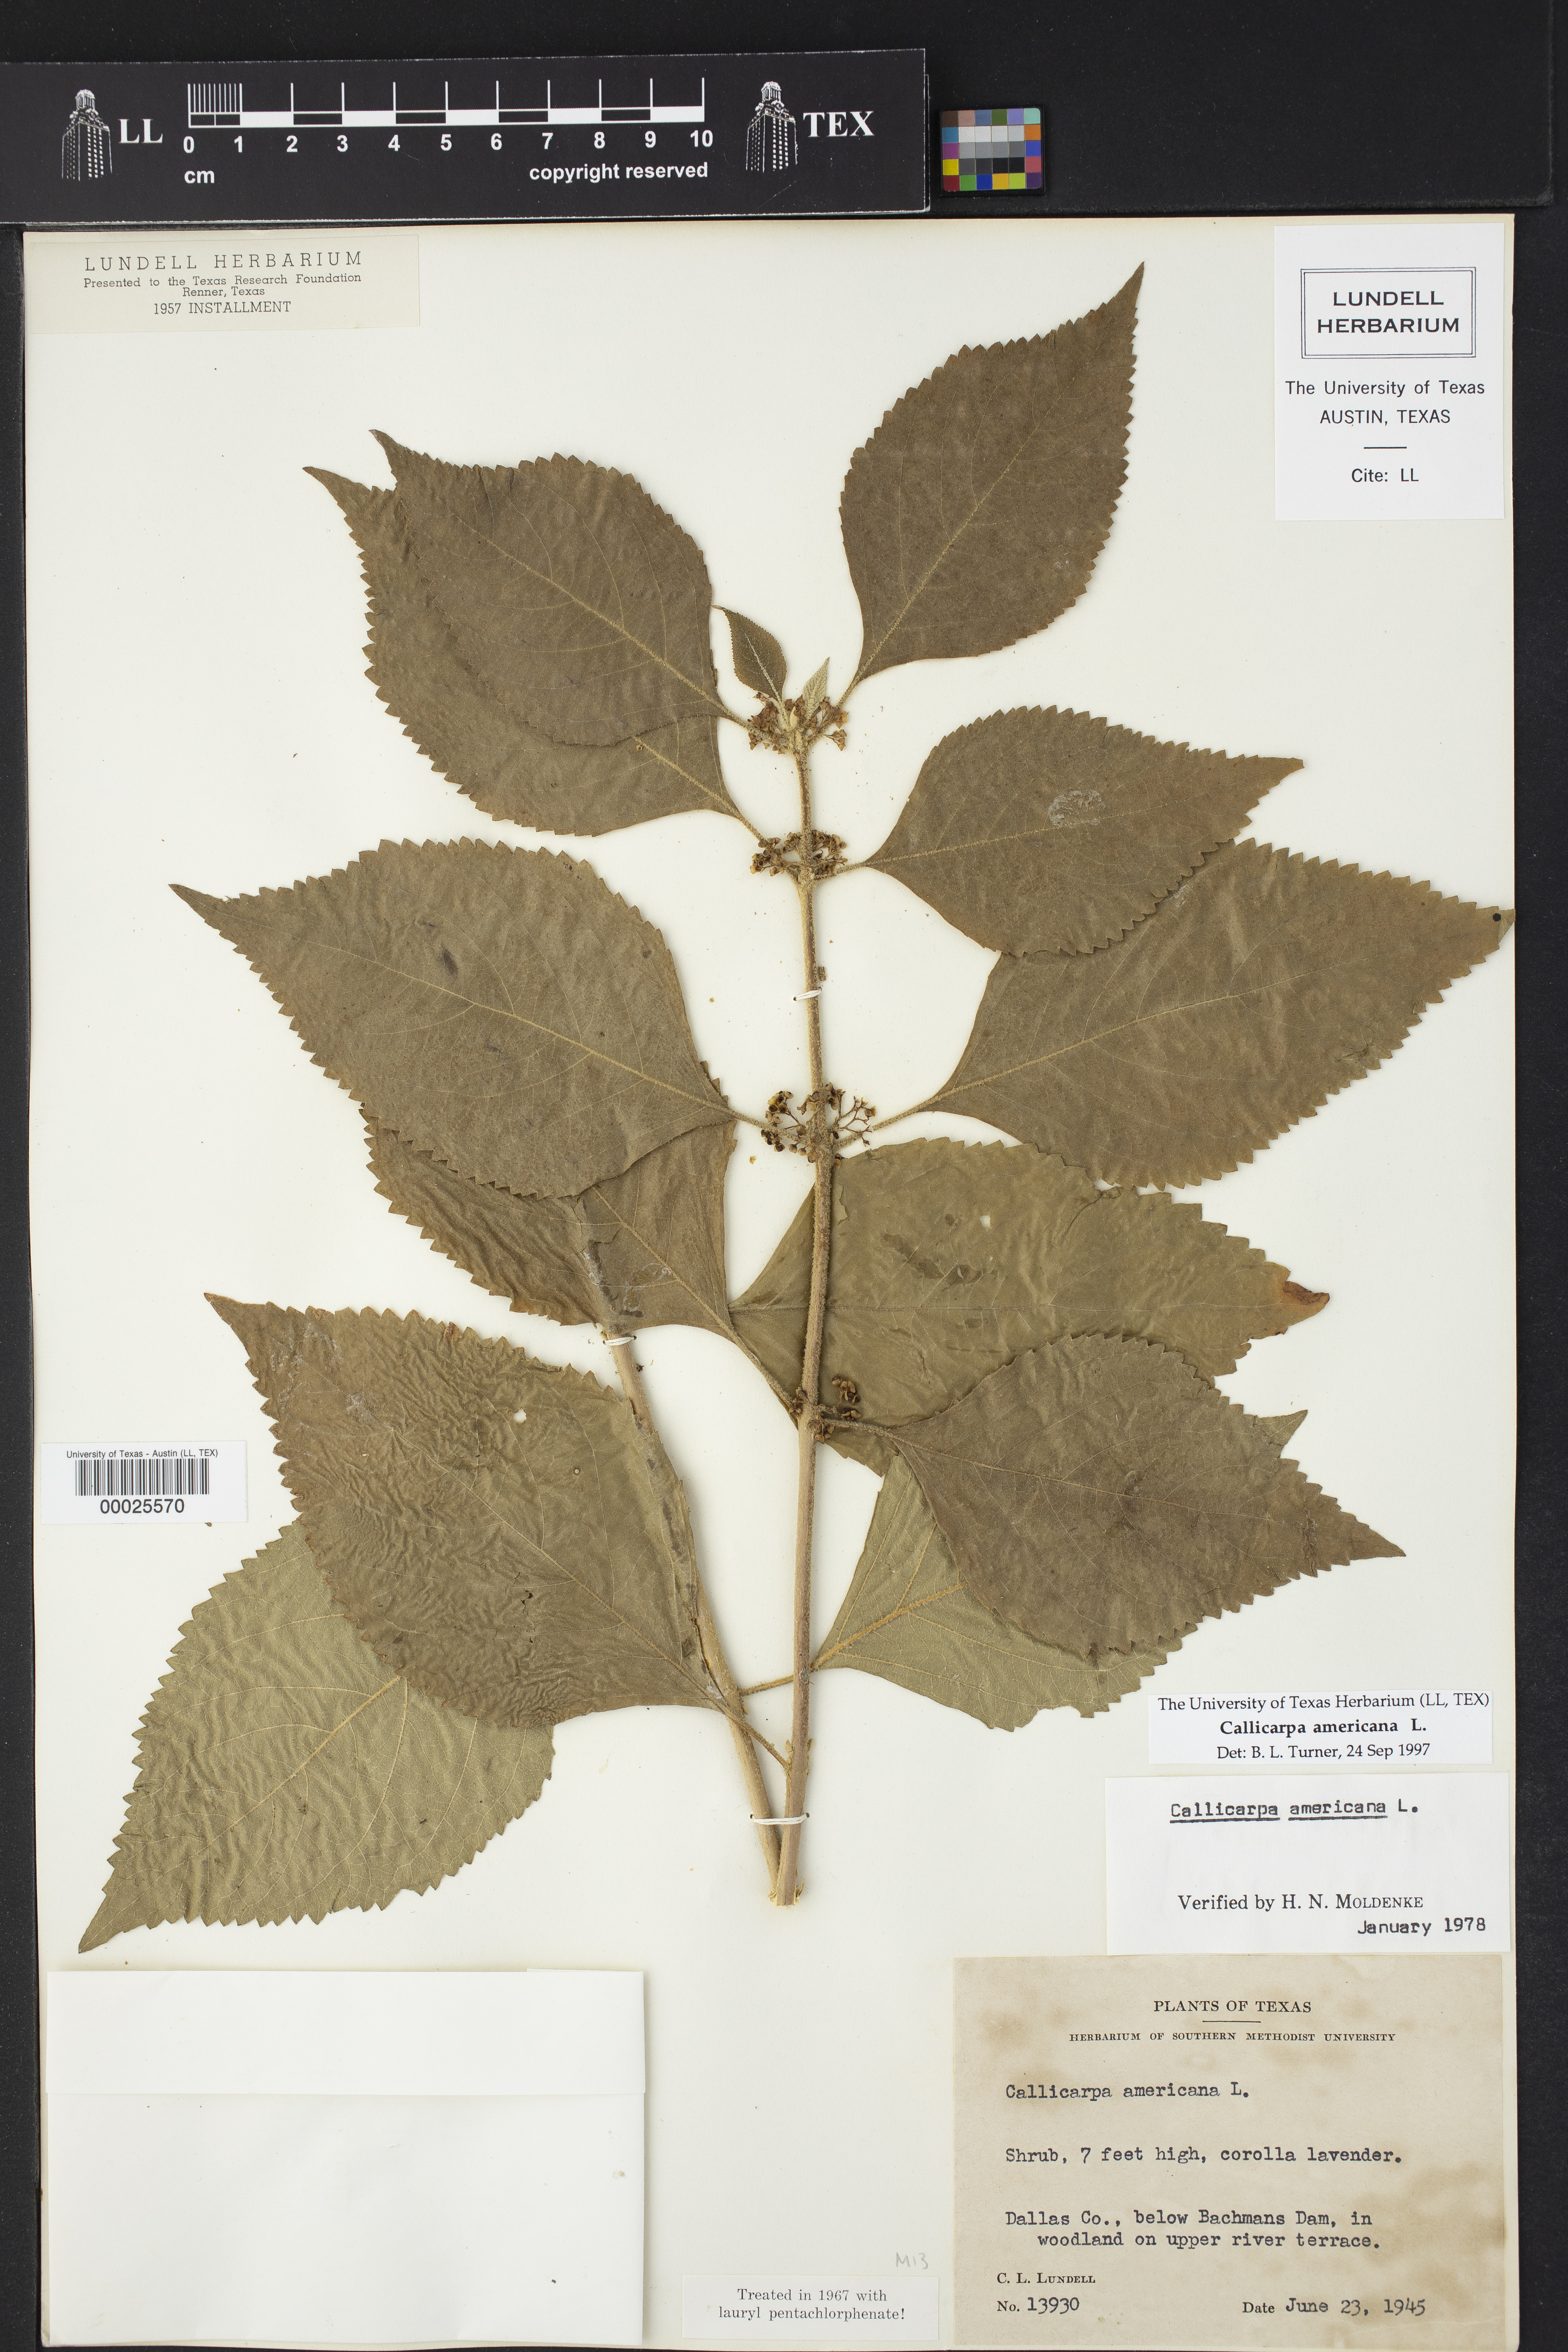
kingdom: Plantae
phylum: Tracheophyta
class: Magnoliopsida
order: Lamiales
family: Lamiaceae
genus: Callicarpa
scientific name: Callicarpa americana
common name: American beautyberry
